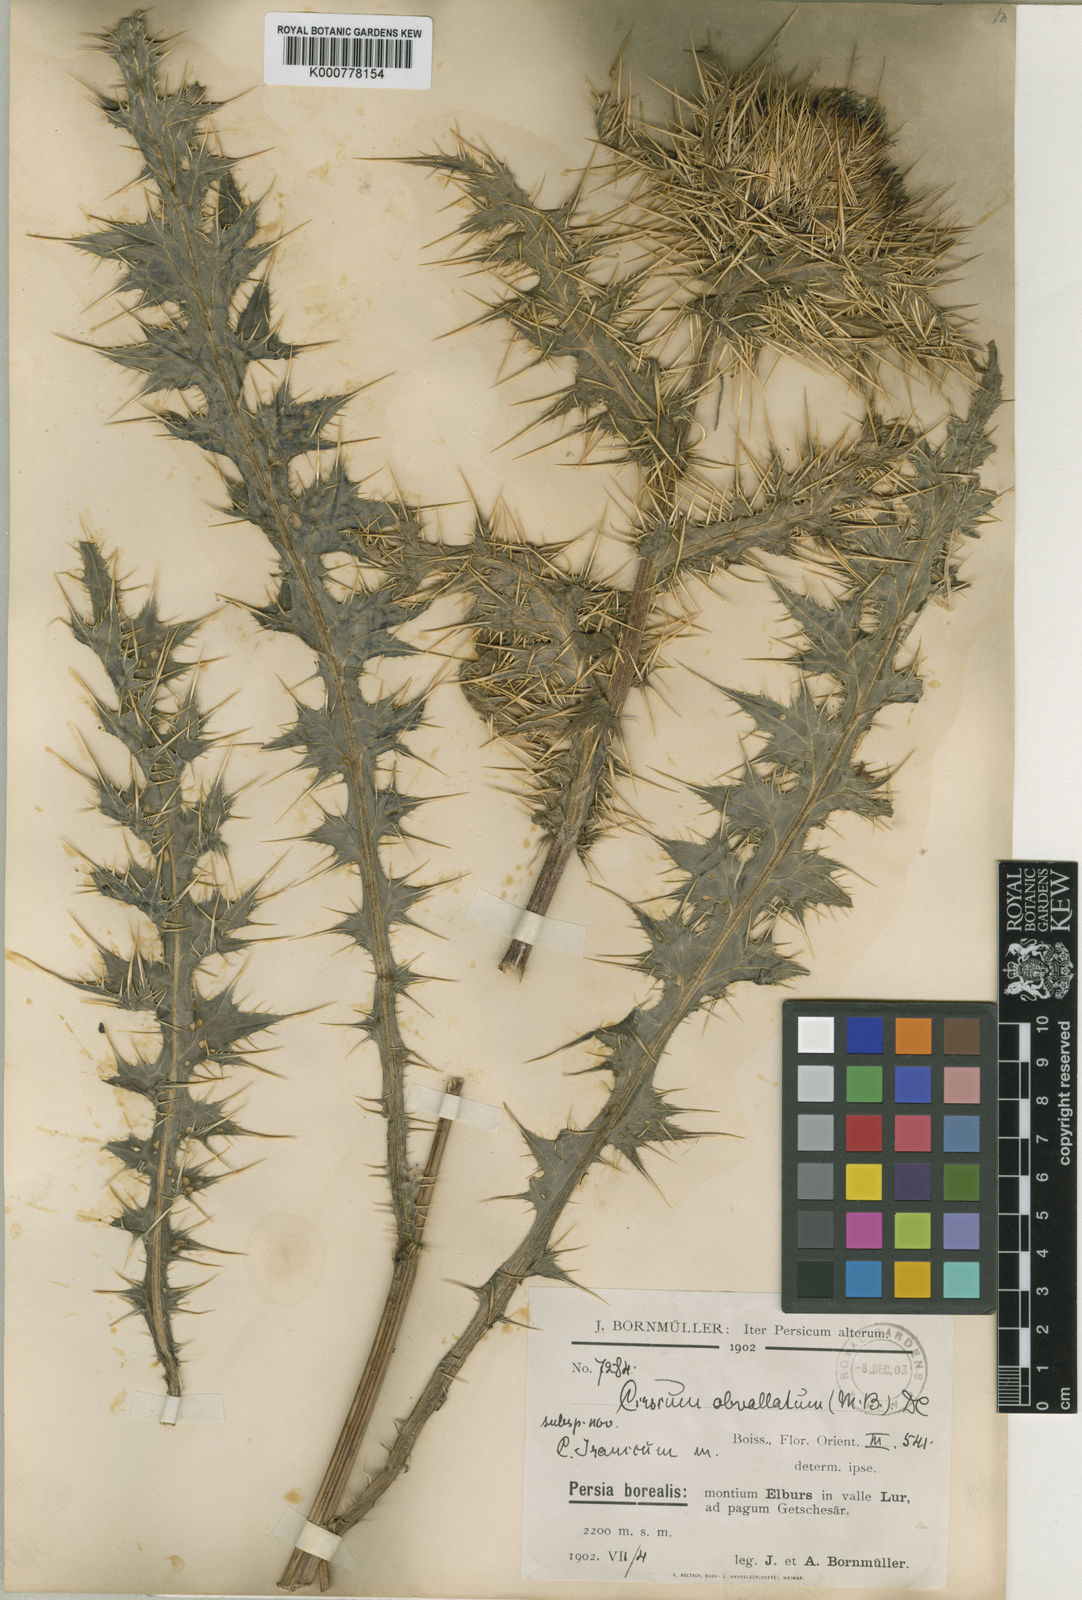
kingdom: Plantae
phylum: Tracheophyta
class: Magnoliopsida
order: Asterales
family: Asteraceae
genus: Cirsium
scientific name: Cirsium obvallatum
